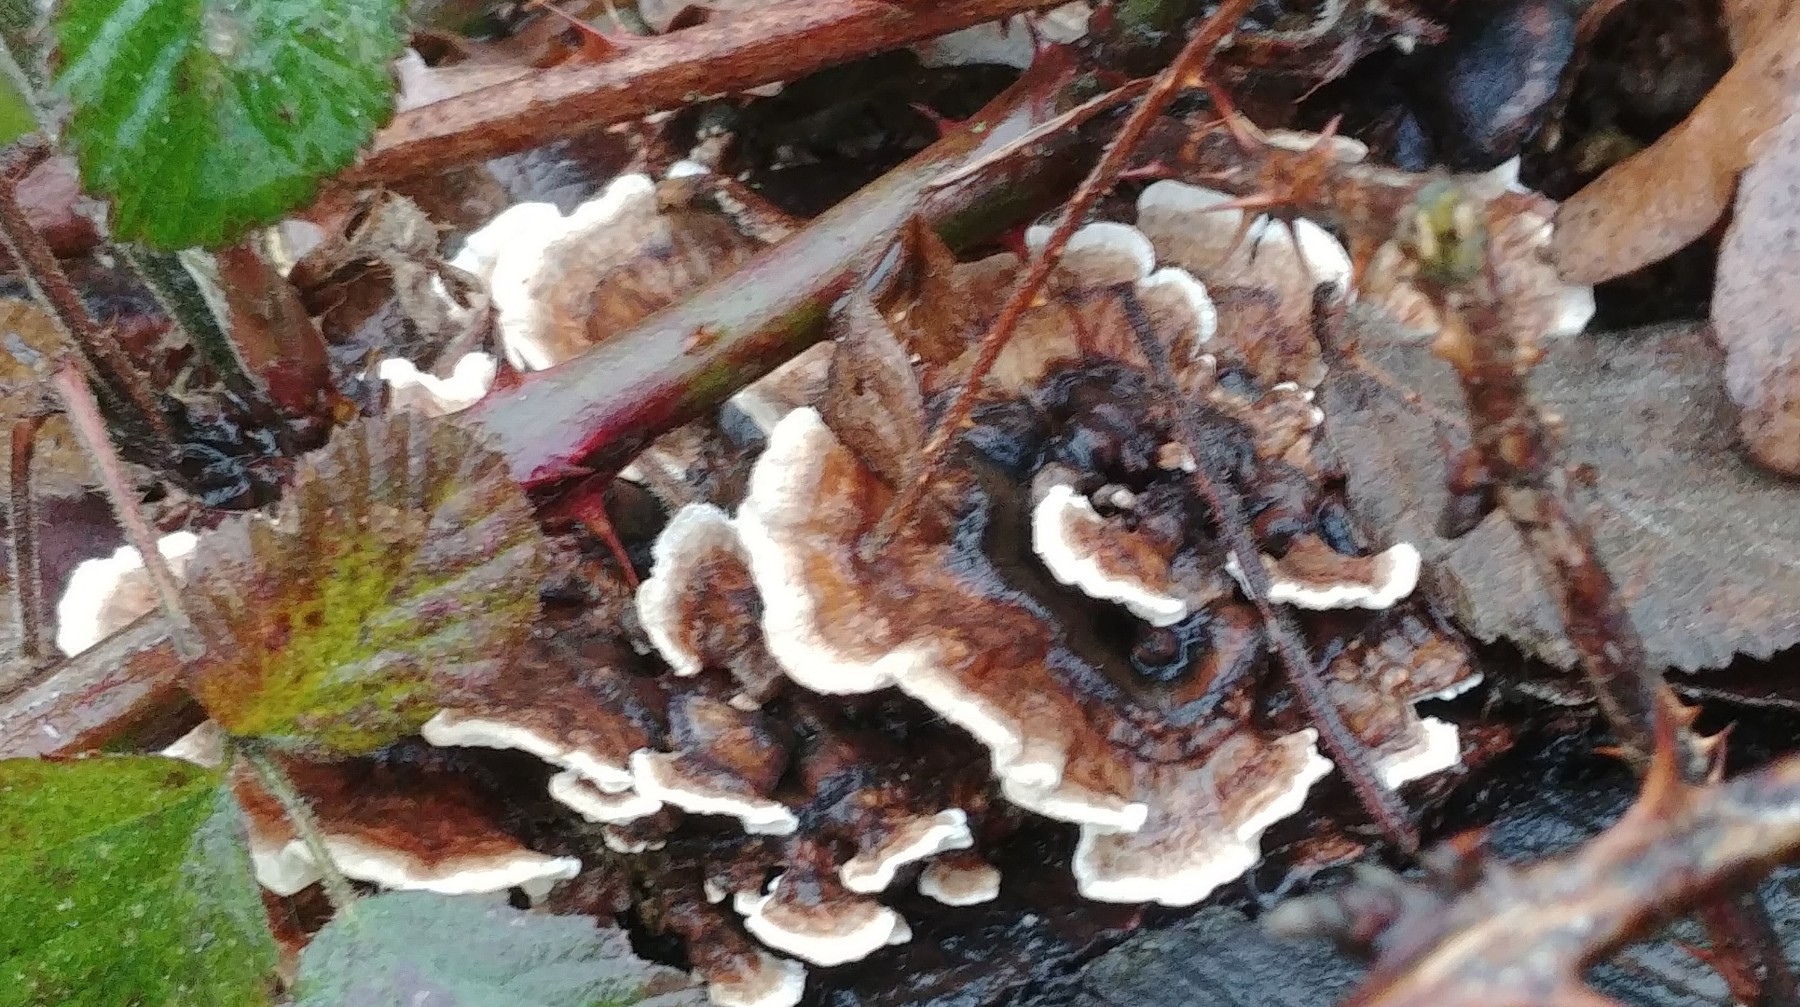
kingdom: Fungi
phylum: Basidiomycota
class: Agaricomycetes
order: Polyporales
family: Polyporaceae
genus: Trametes
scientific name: Trametes versicolor
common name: broget læderporesvamp
